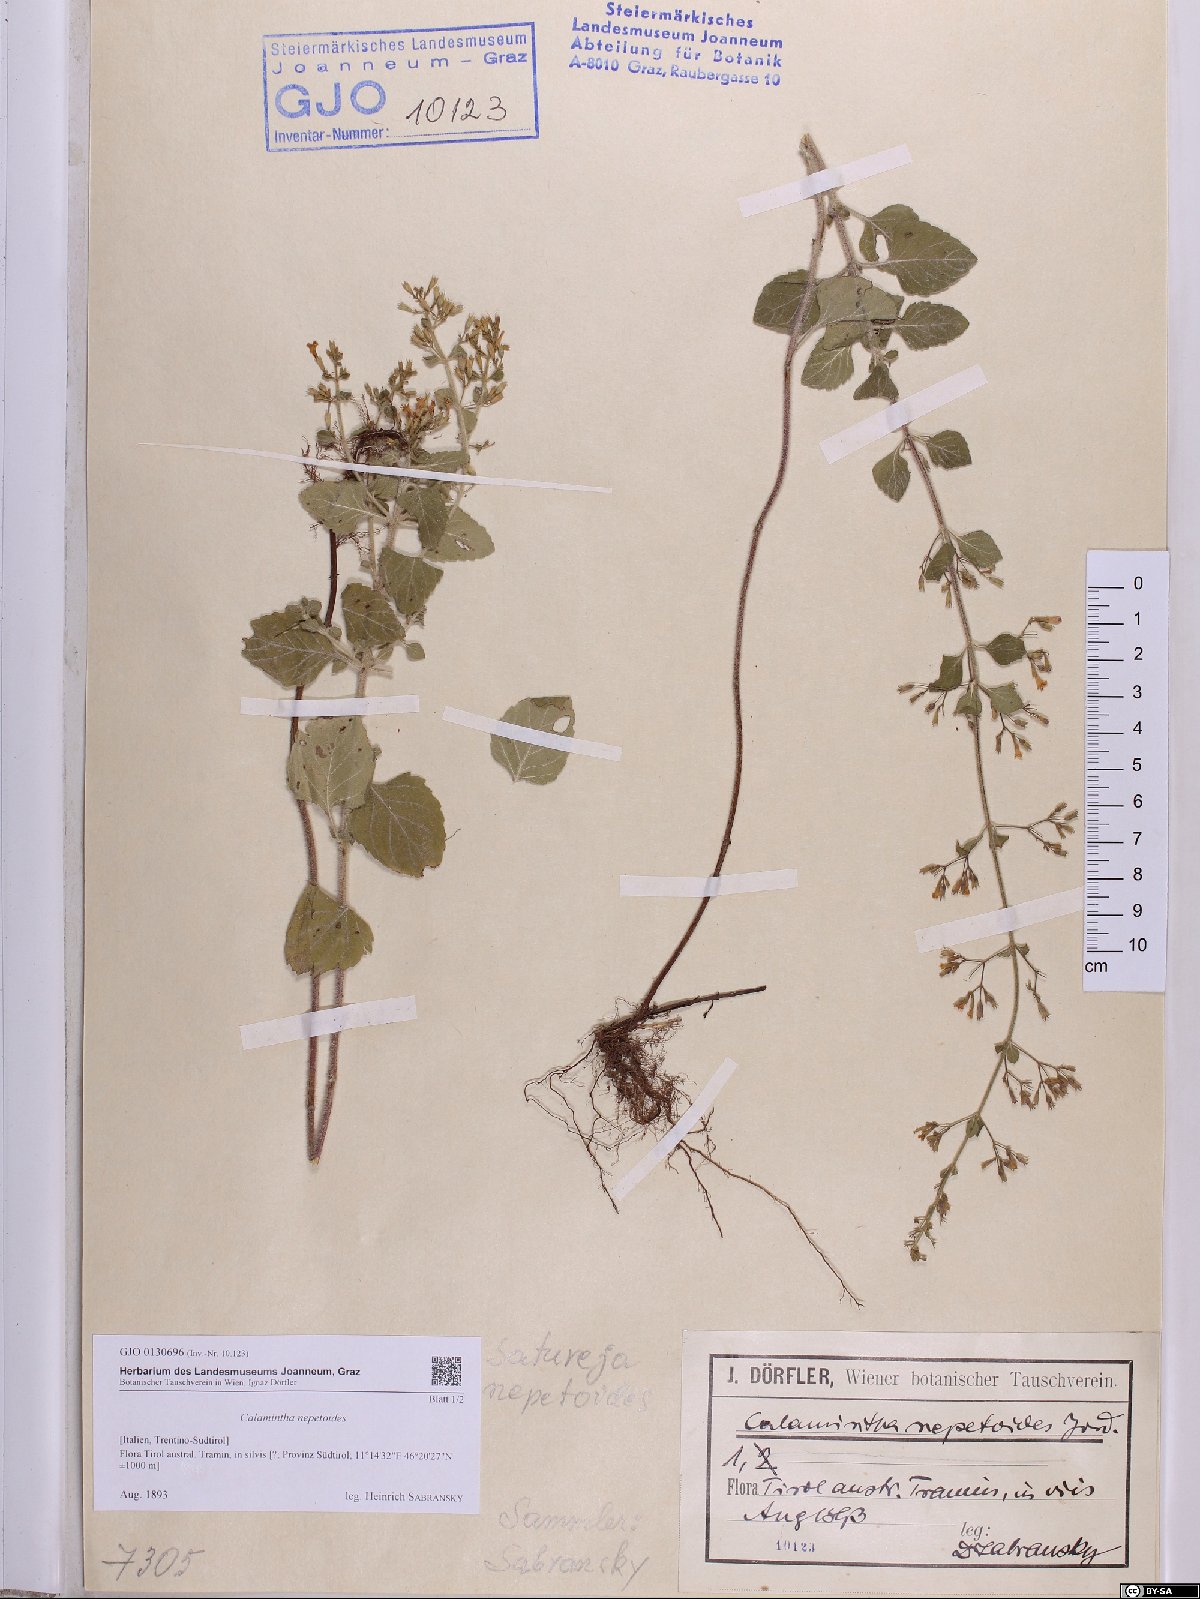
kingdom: Plantae
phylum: Tracheophyta
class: Magnoliopsida
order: Lamiales
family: Lamiaceae
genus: Clinopodium
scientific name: Clinopodium nepeta
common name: Lesser calamint
